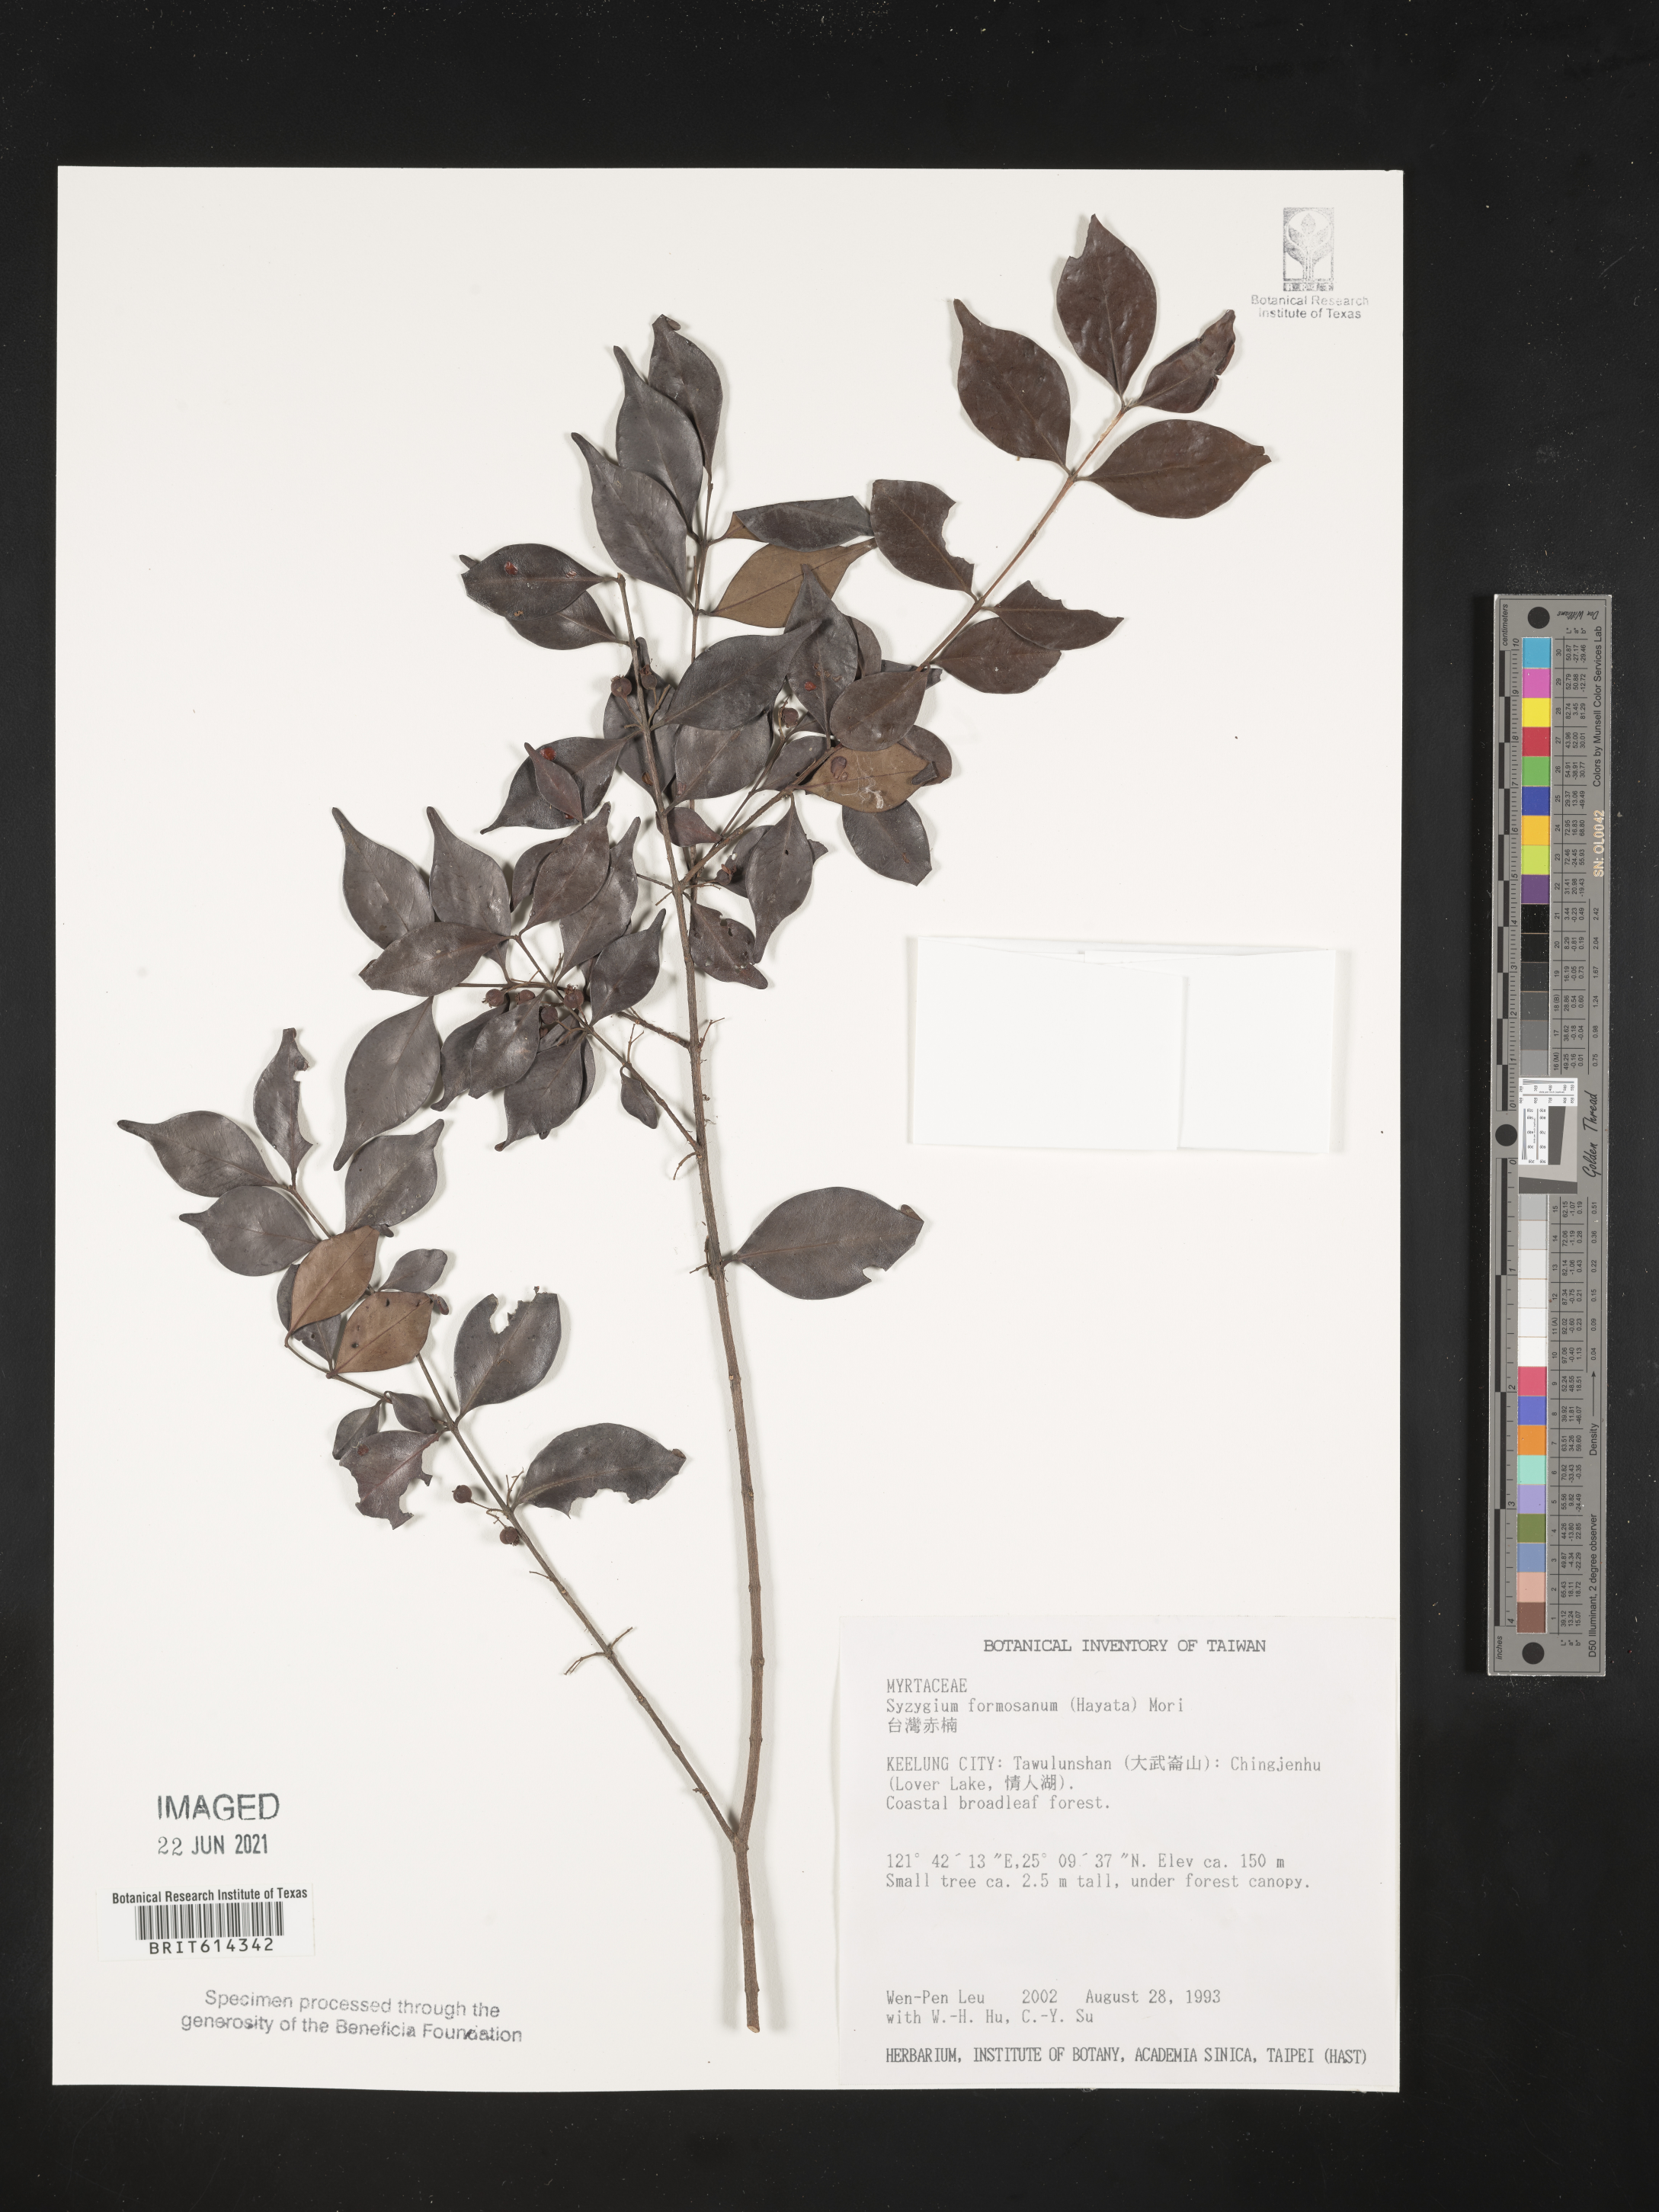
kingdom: Plantae
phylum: Tracheophyta
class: Magnoliopsida
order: Myrtales
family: Myrtaceae
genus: Syzygium
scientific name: Syzygium formosanum
